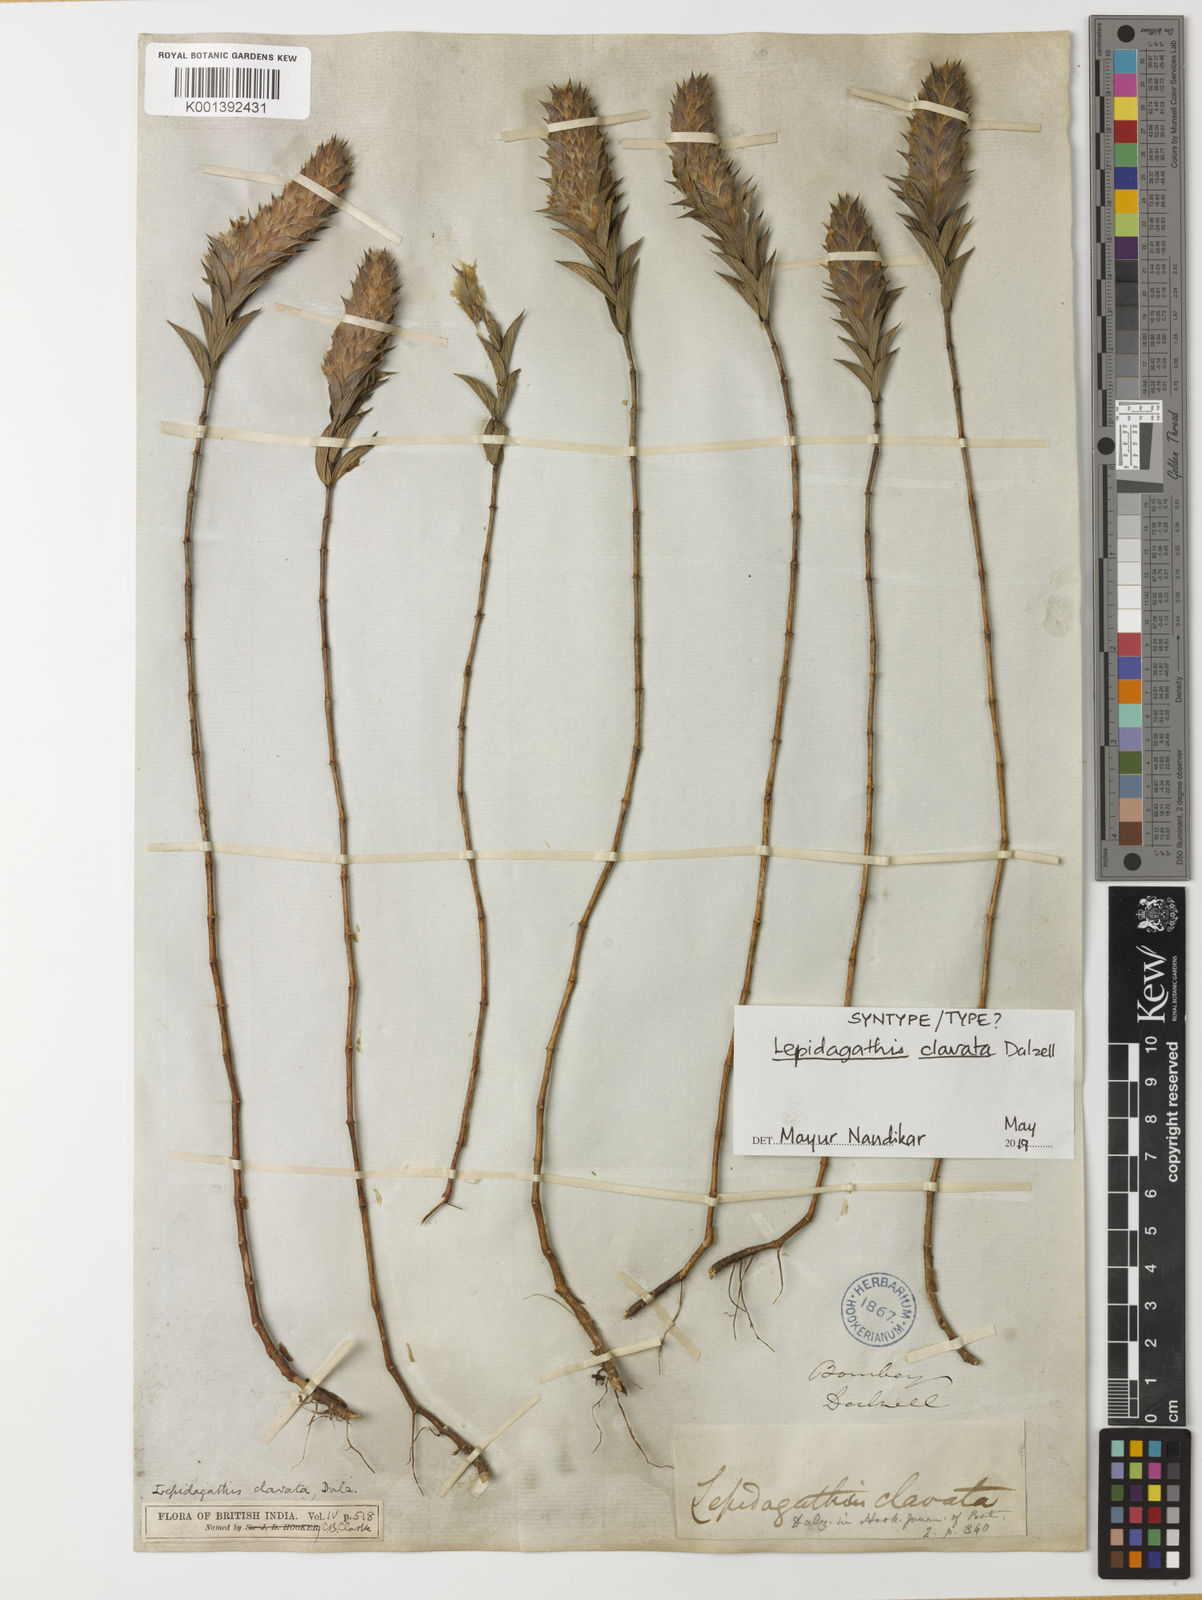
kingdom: Plantae
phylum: Tracheophyta
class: Magnoliopsida
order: Lamiales
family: Acanthaceae
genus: Lepidagathis
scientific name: Lepidagathis clavata
